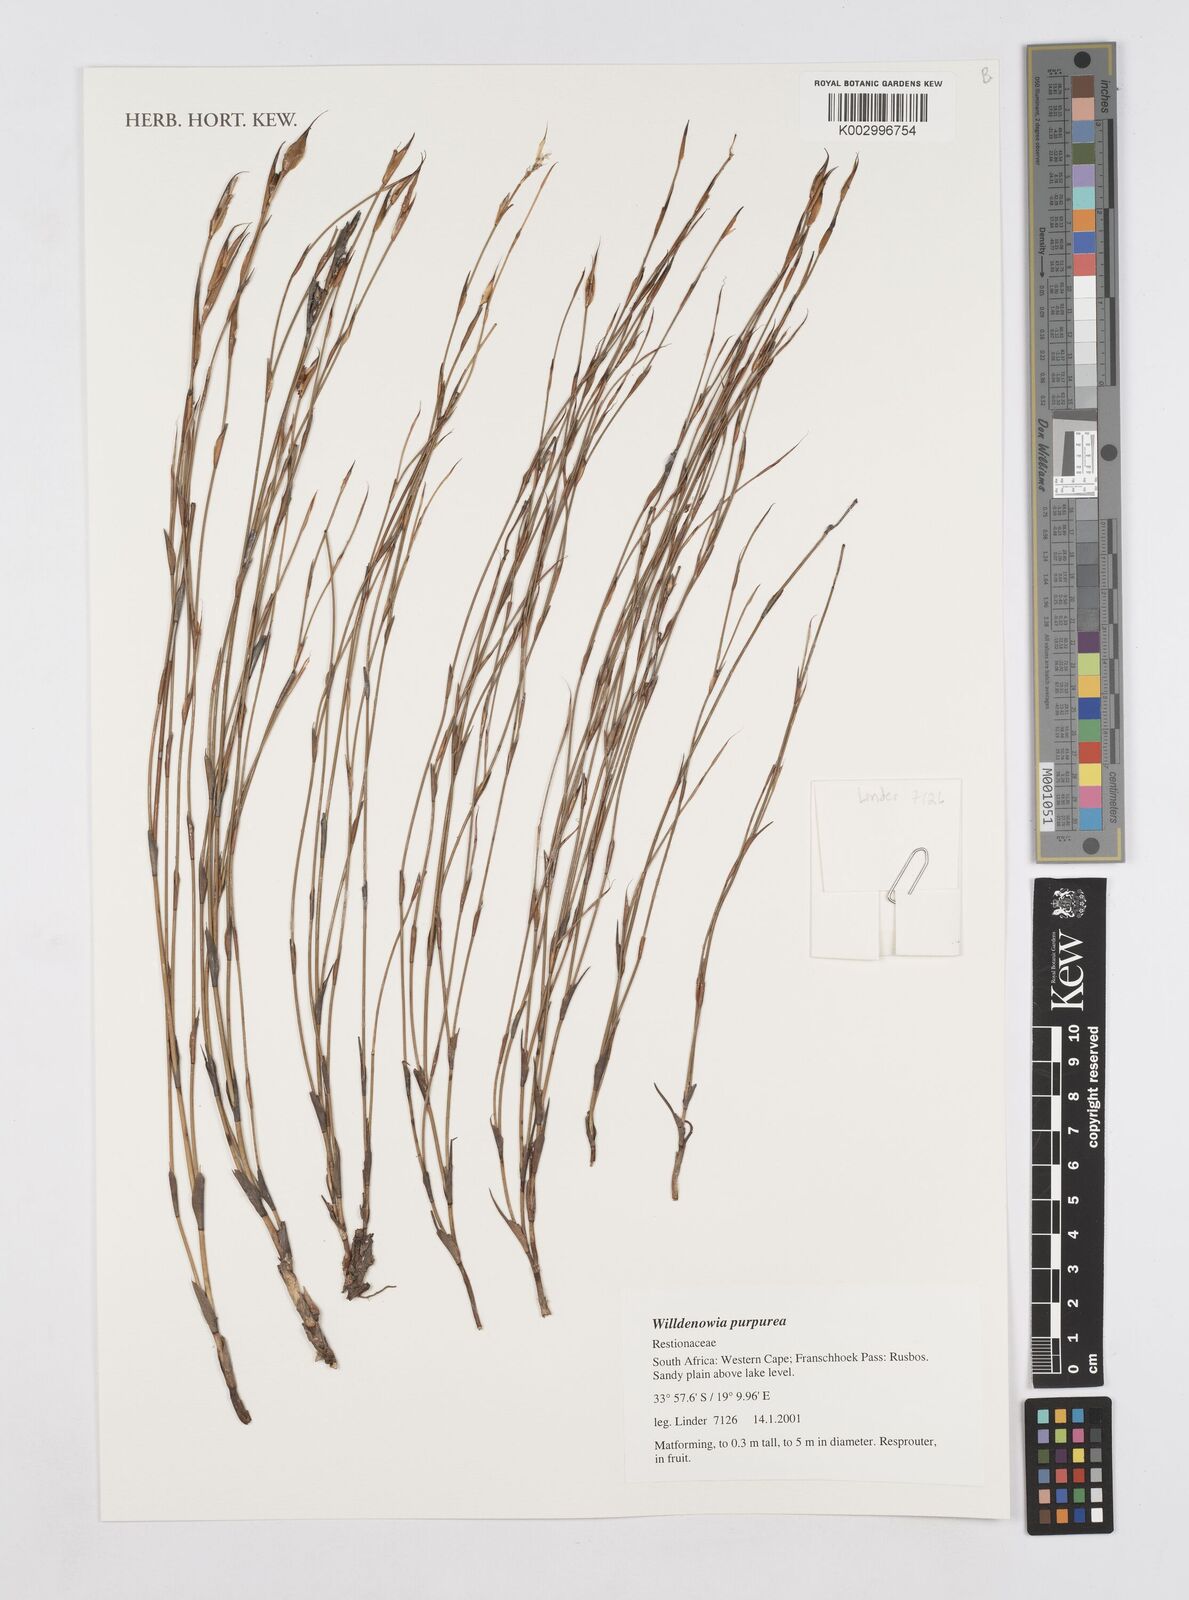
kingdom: Plantae
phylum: Tracheophyta
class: Liliopsida
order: Poales
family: Restionaceae
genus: Willdenowia
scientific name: Willdenowia purpurea
